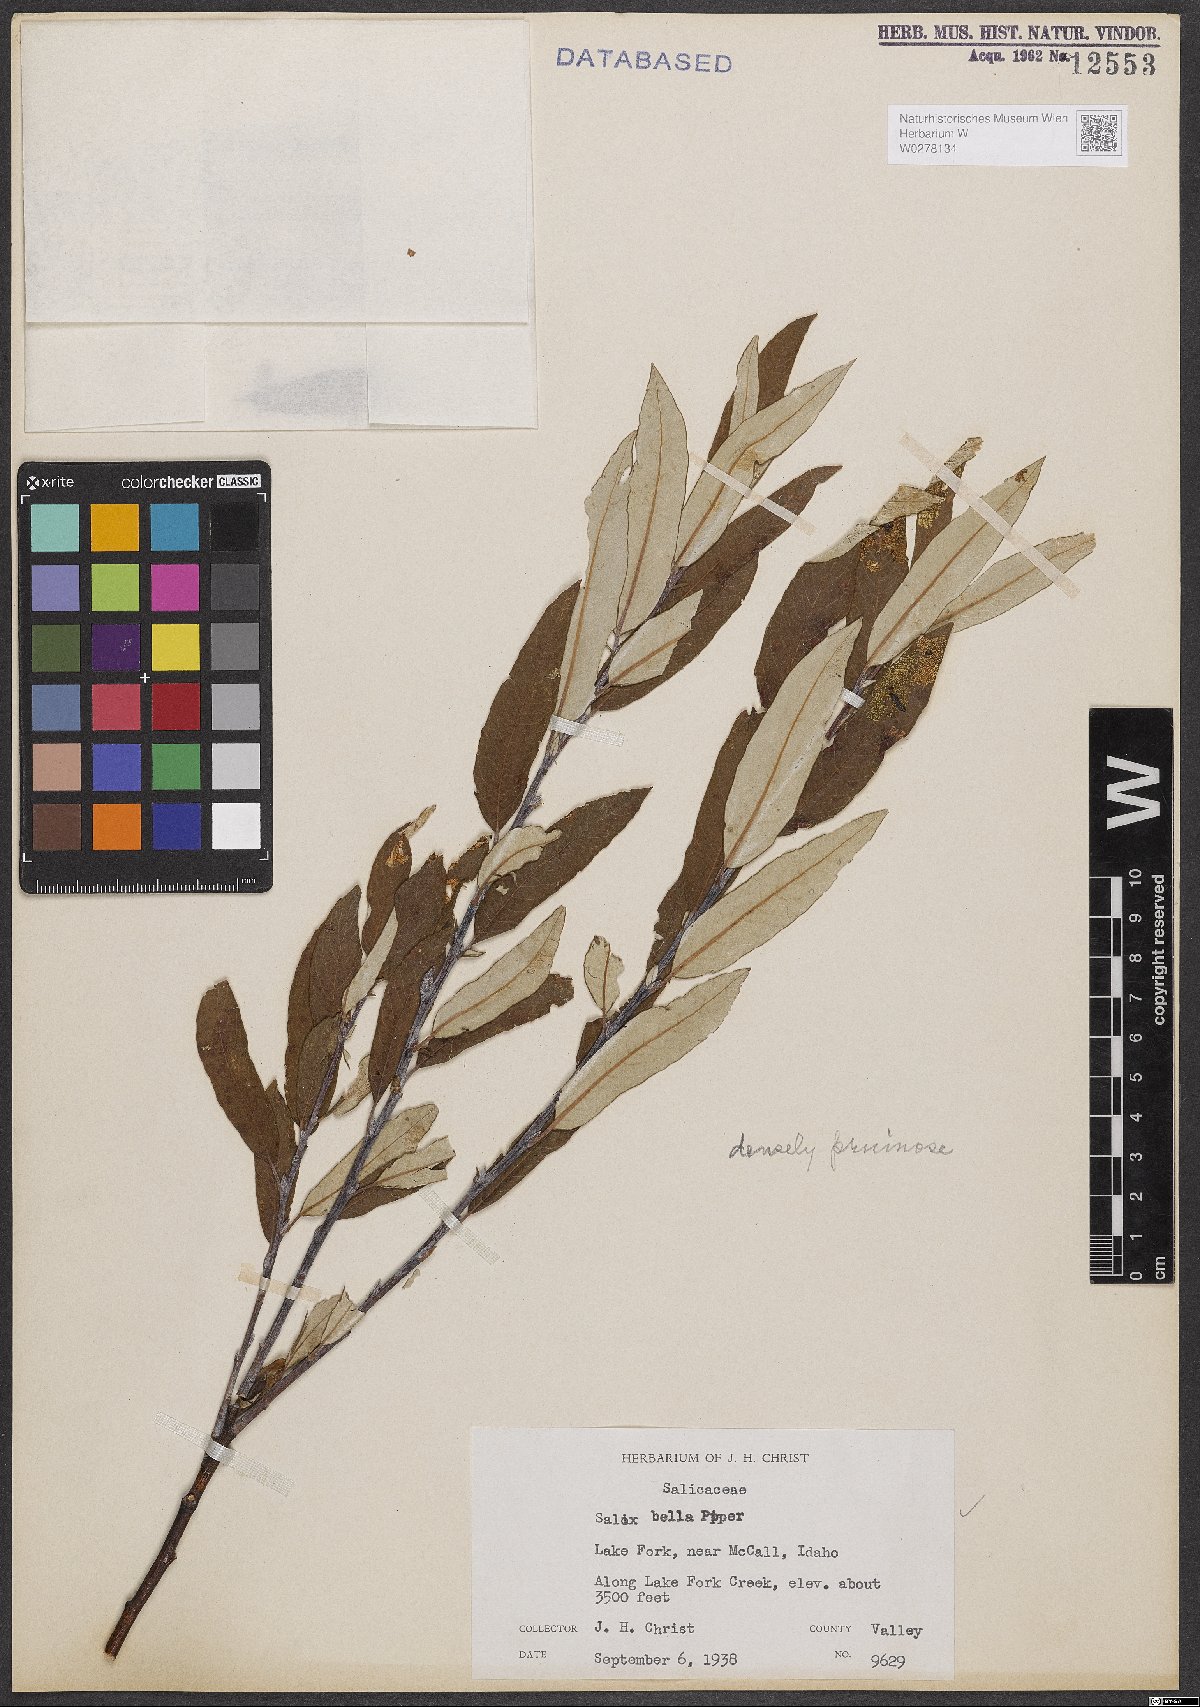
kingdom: Plantae
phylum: Tracheophyta
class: Magnoliopsida
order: Malpighiales
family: Salicaceae
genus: Salix
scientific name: Salix drummondiana
